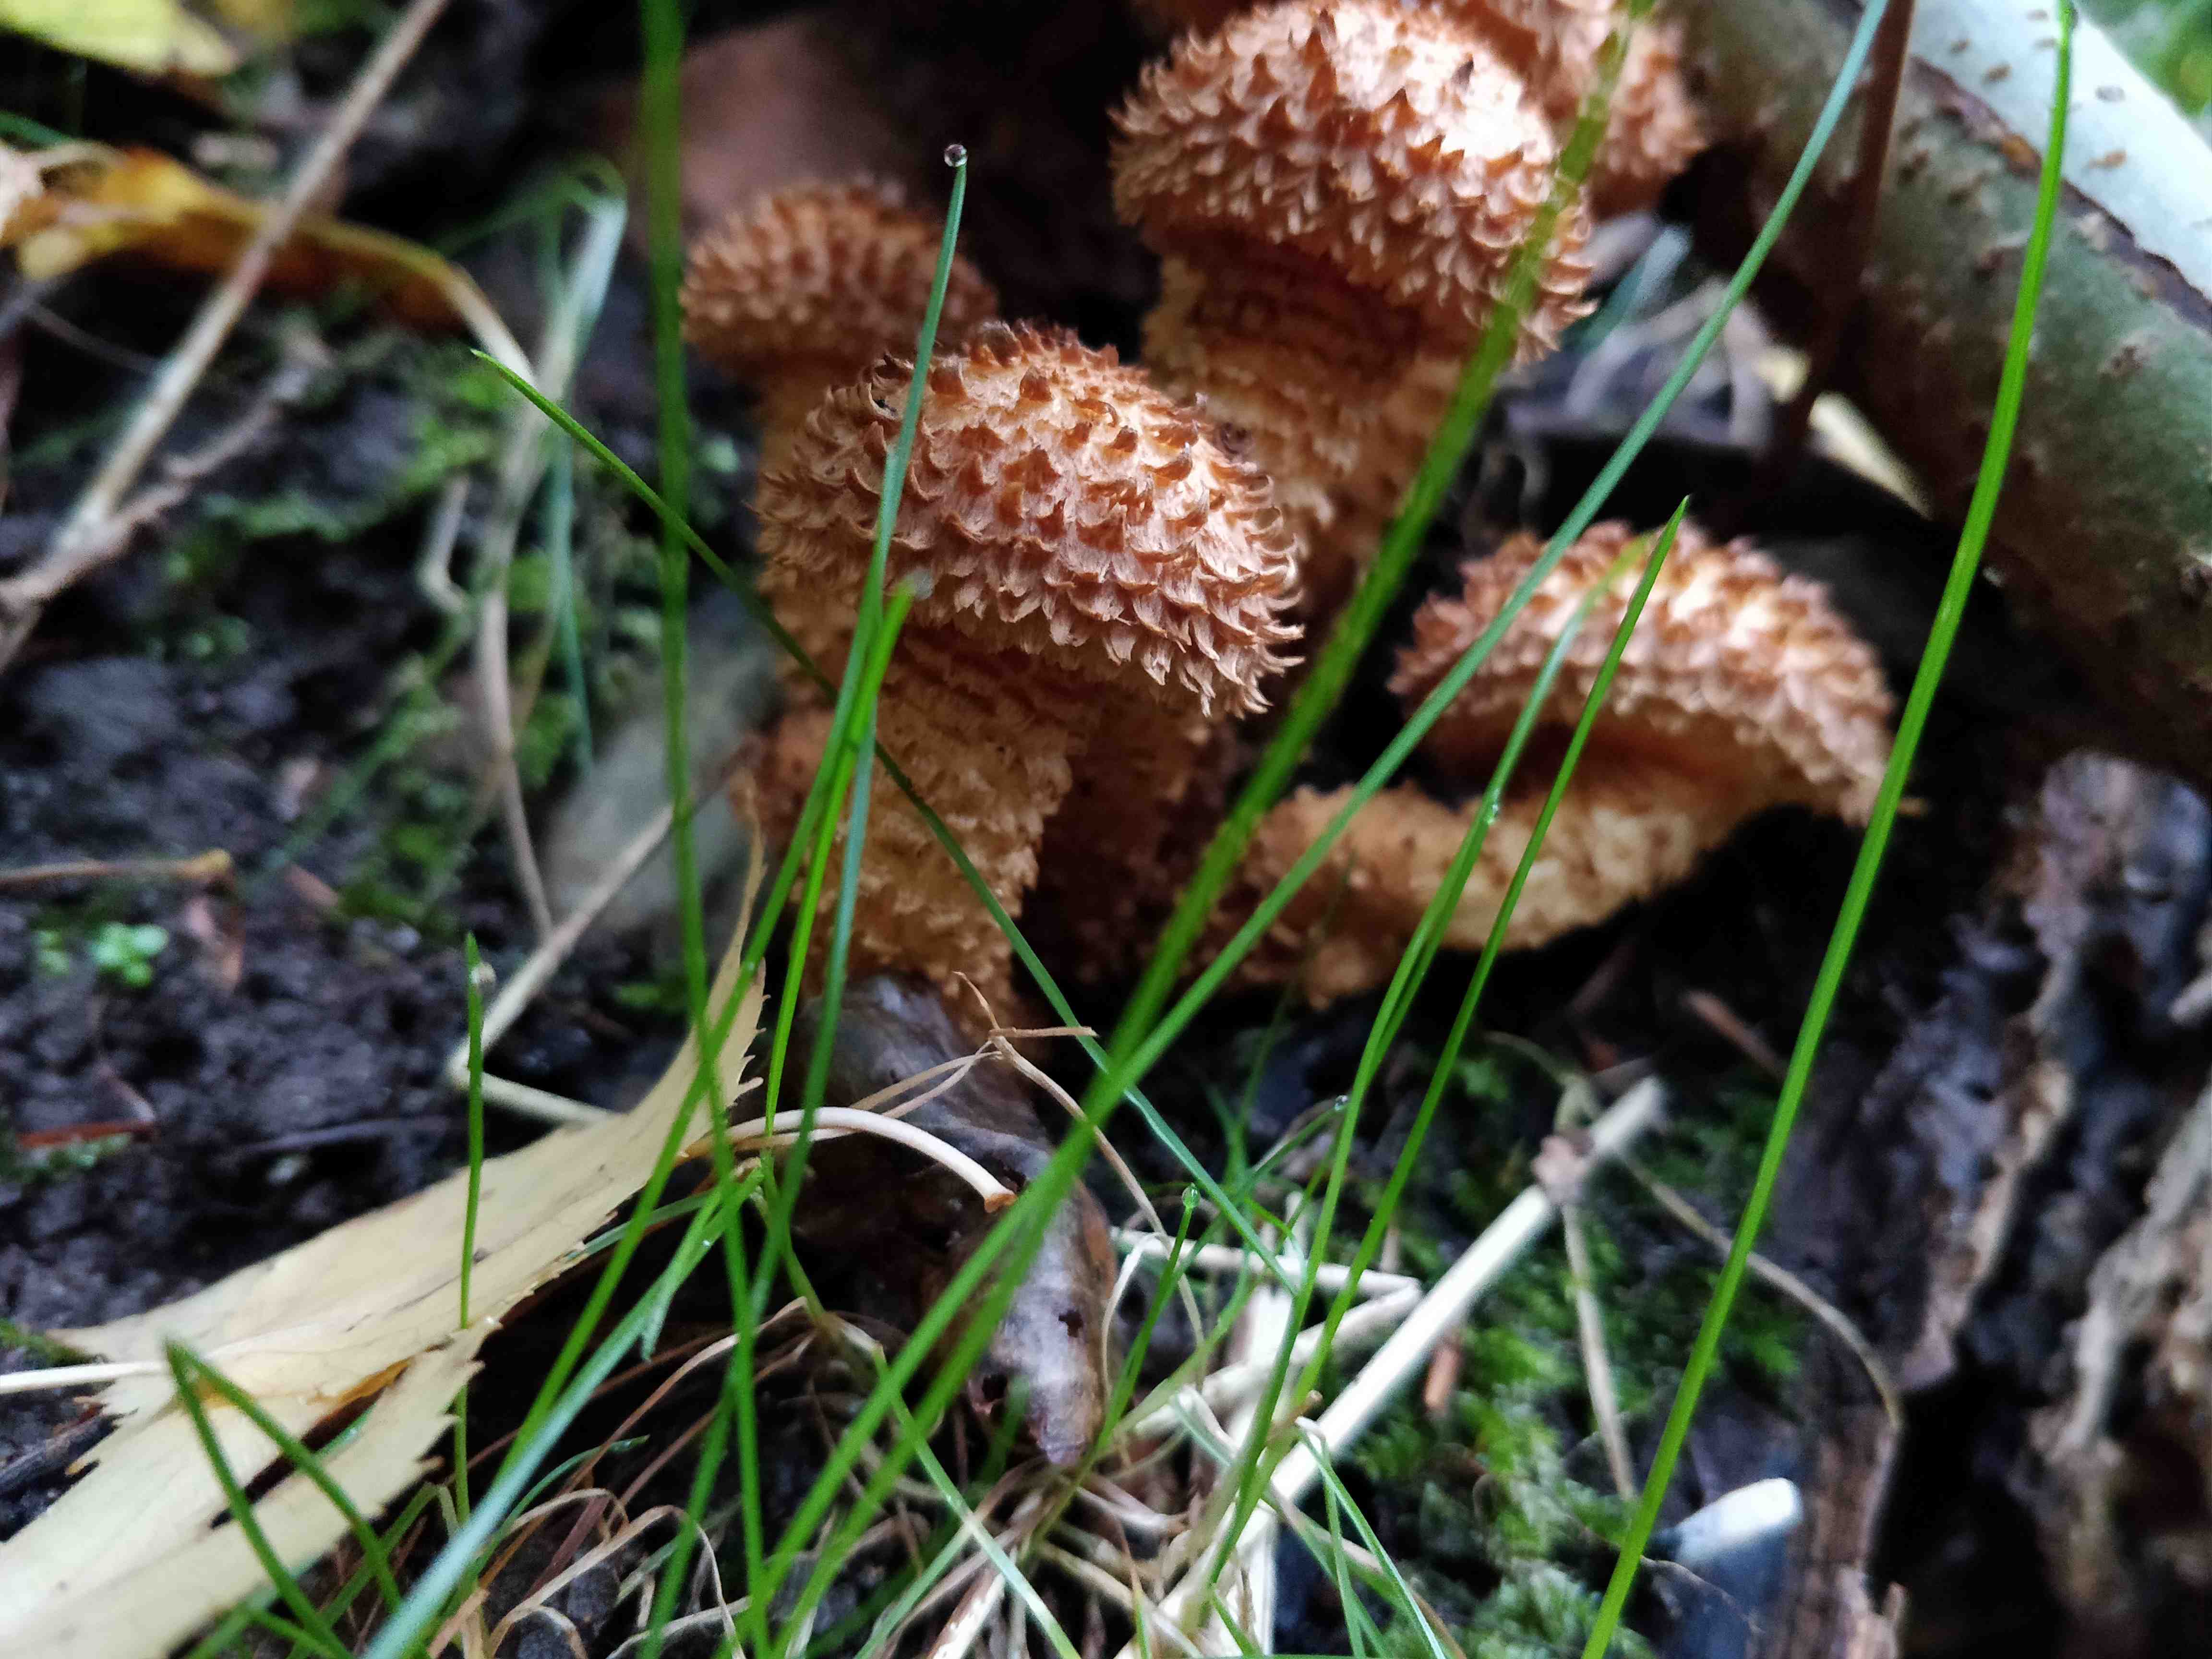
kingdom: Fungi
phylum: Basidiomycota
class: Agaricomycetes
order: Agaricales
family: Strophariaceae
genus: Pholiota
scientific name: Pholiota squarrosa
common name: krumskællet skælhat
